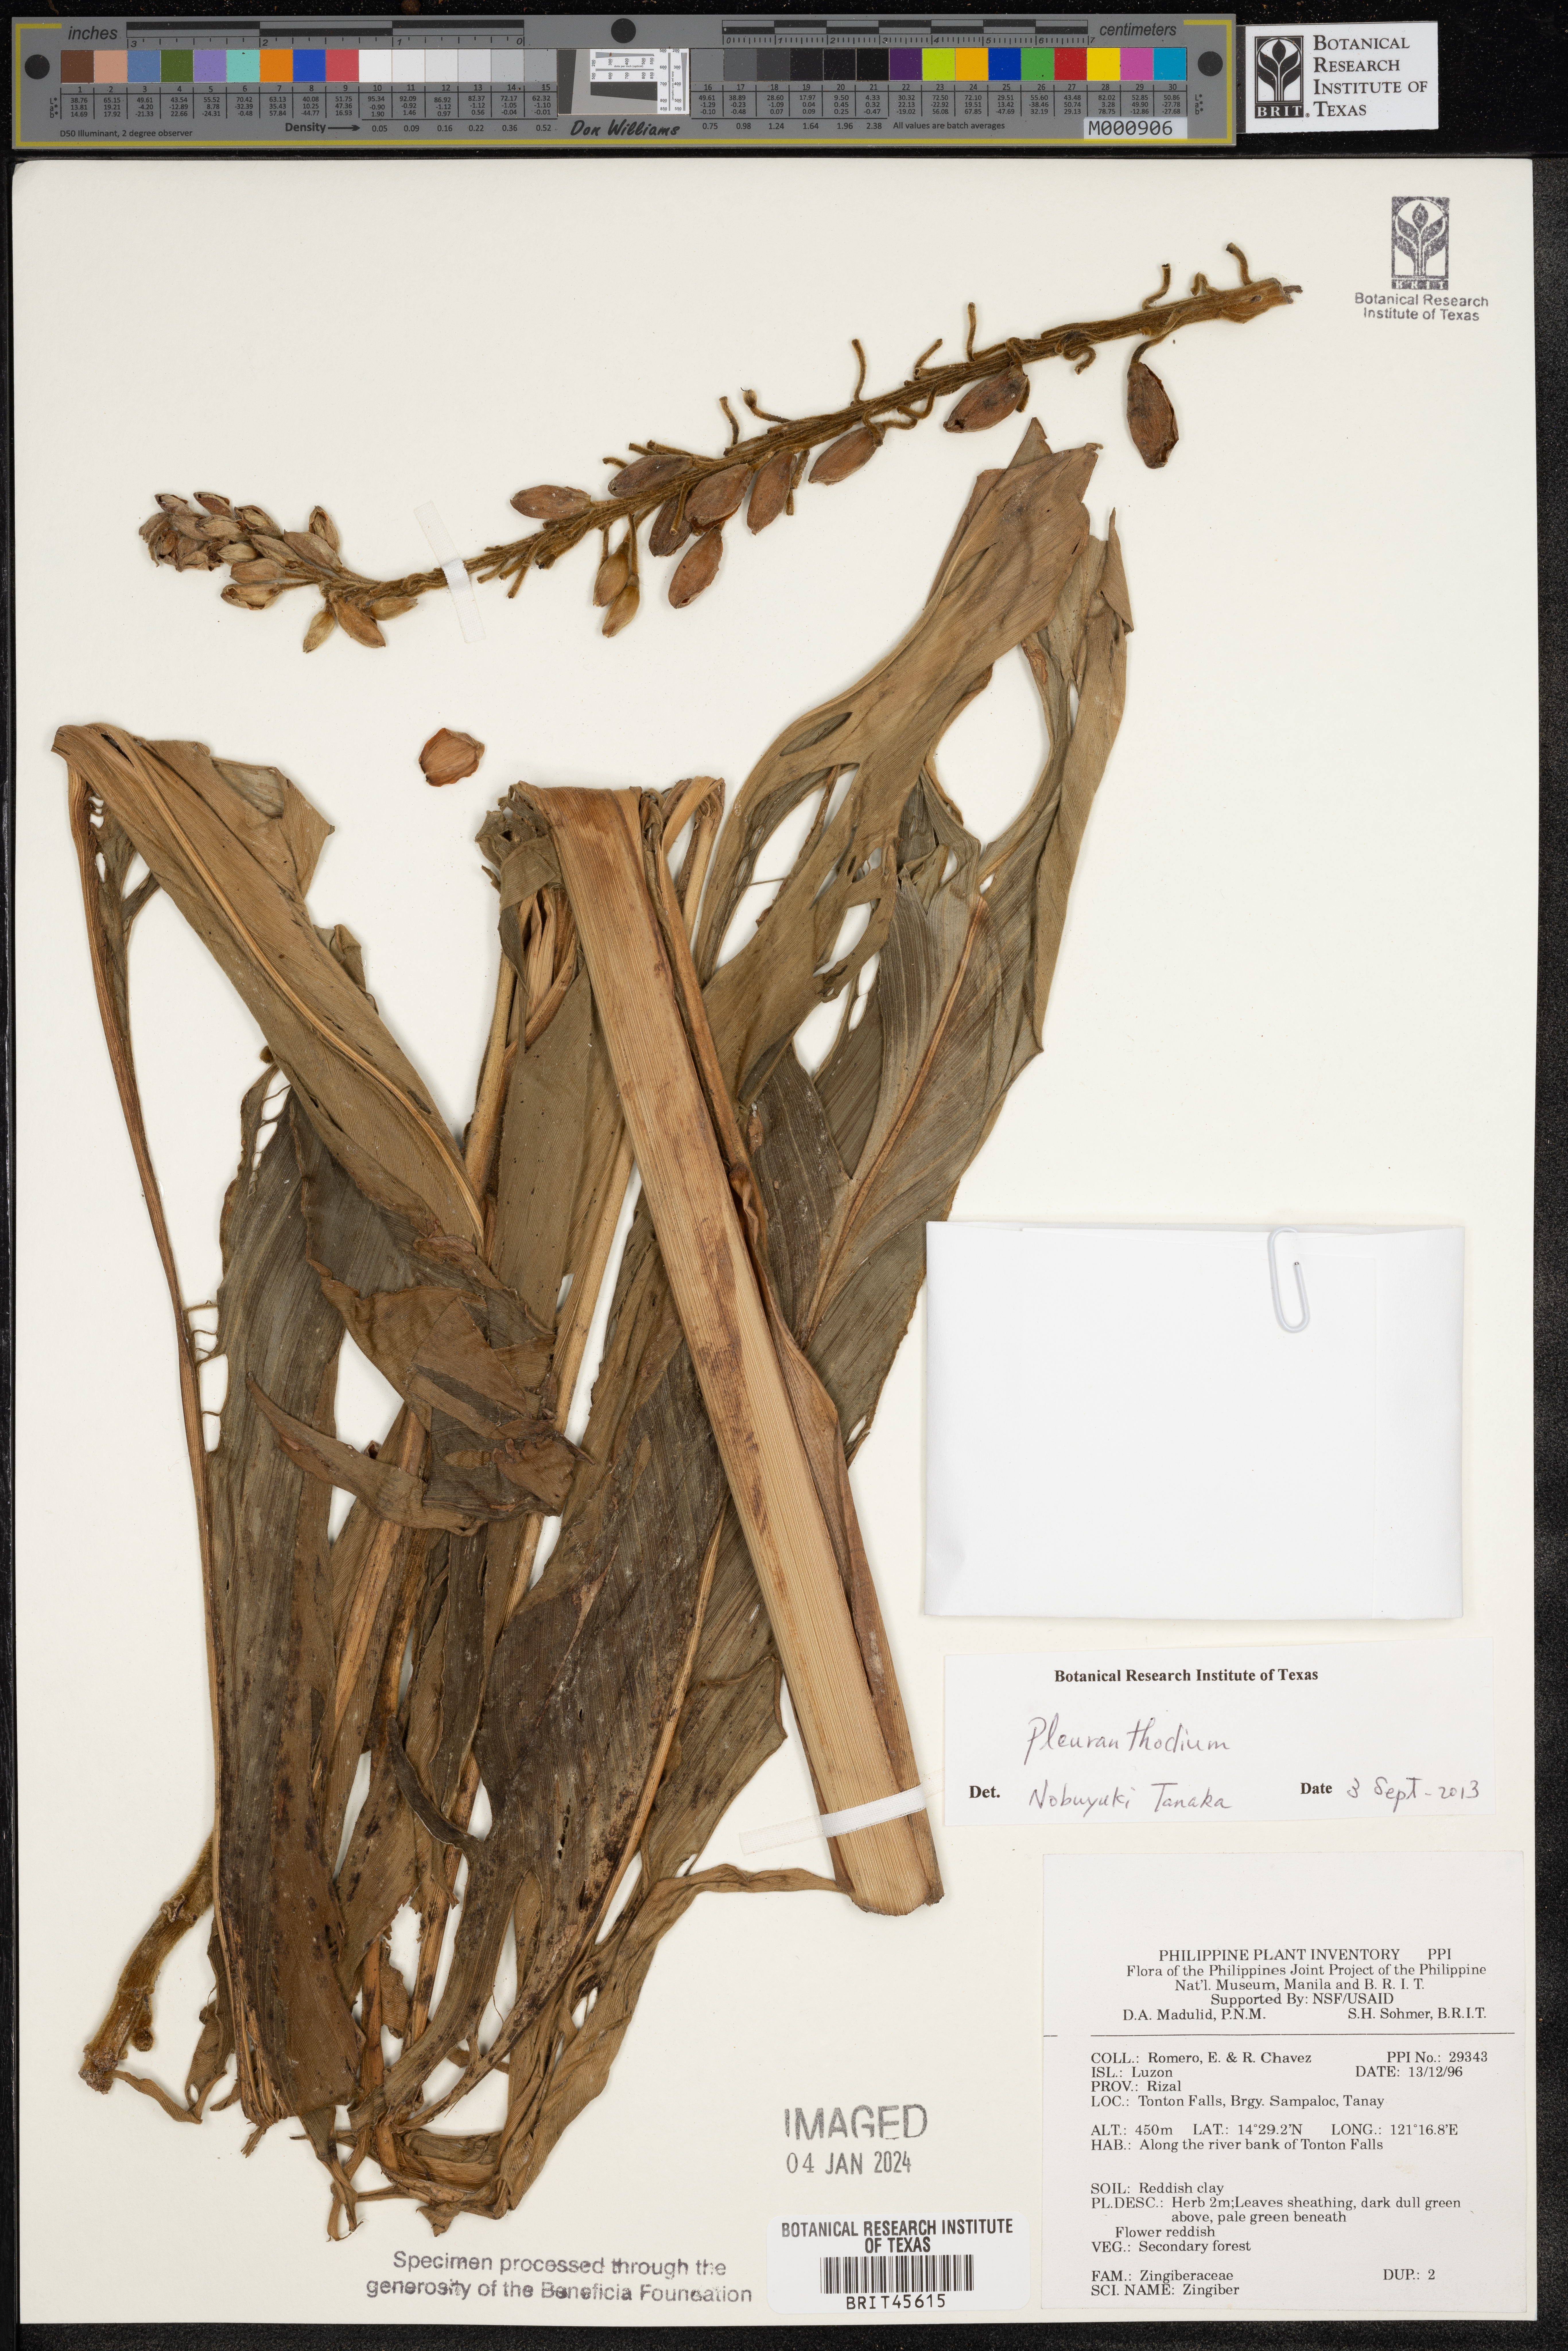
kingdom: Plantae
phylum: Tracheophyta
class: Liliopsida
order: Zingiberales
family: Zingiberaceae
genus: Zingiber
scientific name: Zingiber
